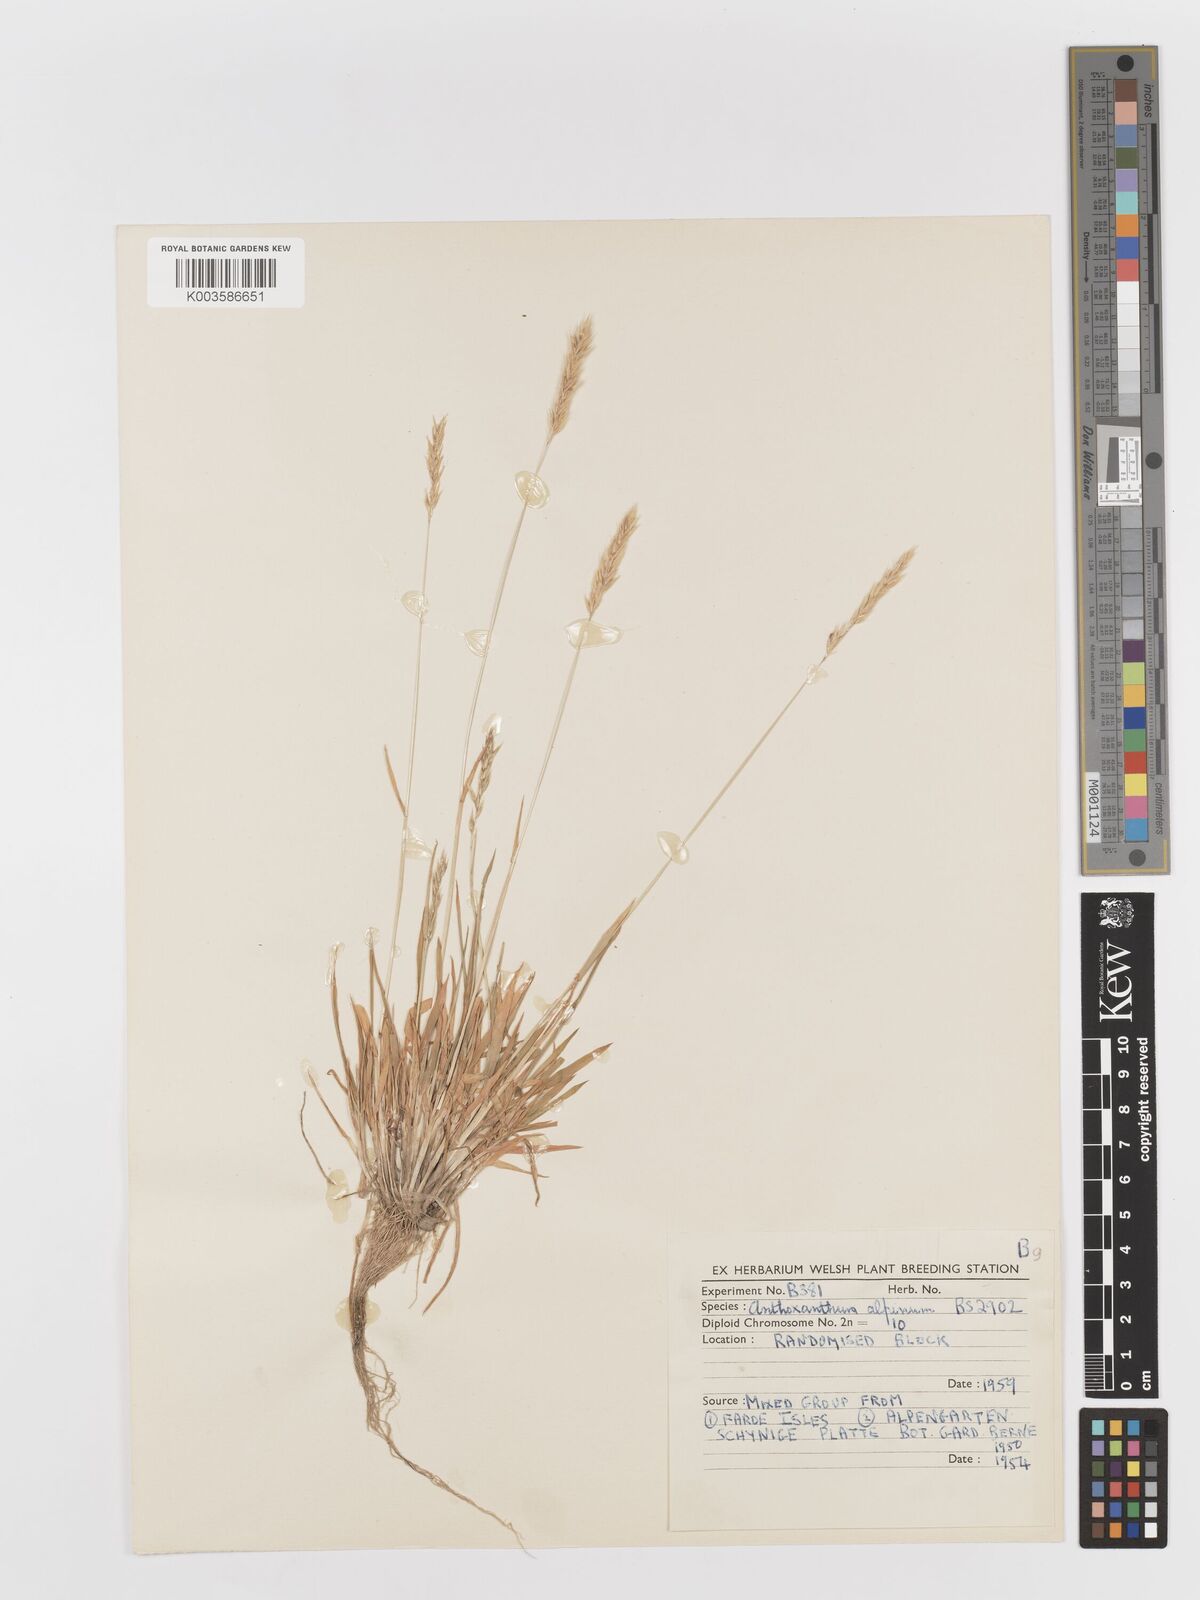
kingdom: Plantae
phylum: Tracheophyta
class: Liliopsida
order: Poales
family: Poaceae
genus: Anthoxanthum
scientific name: Anthoxanthum odoratum
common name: Sweet vernalgrass
